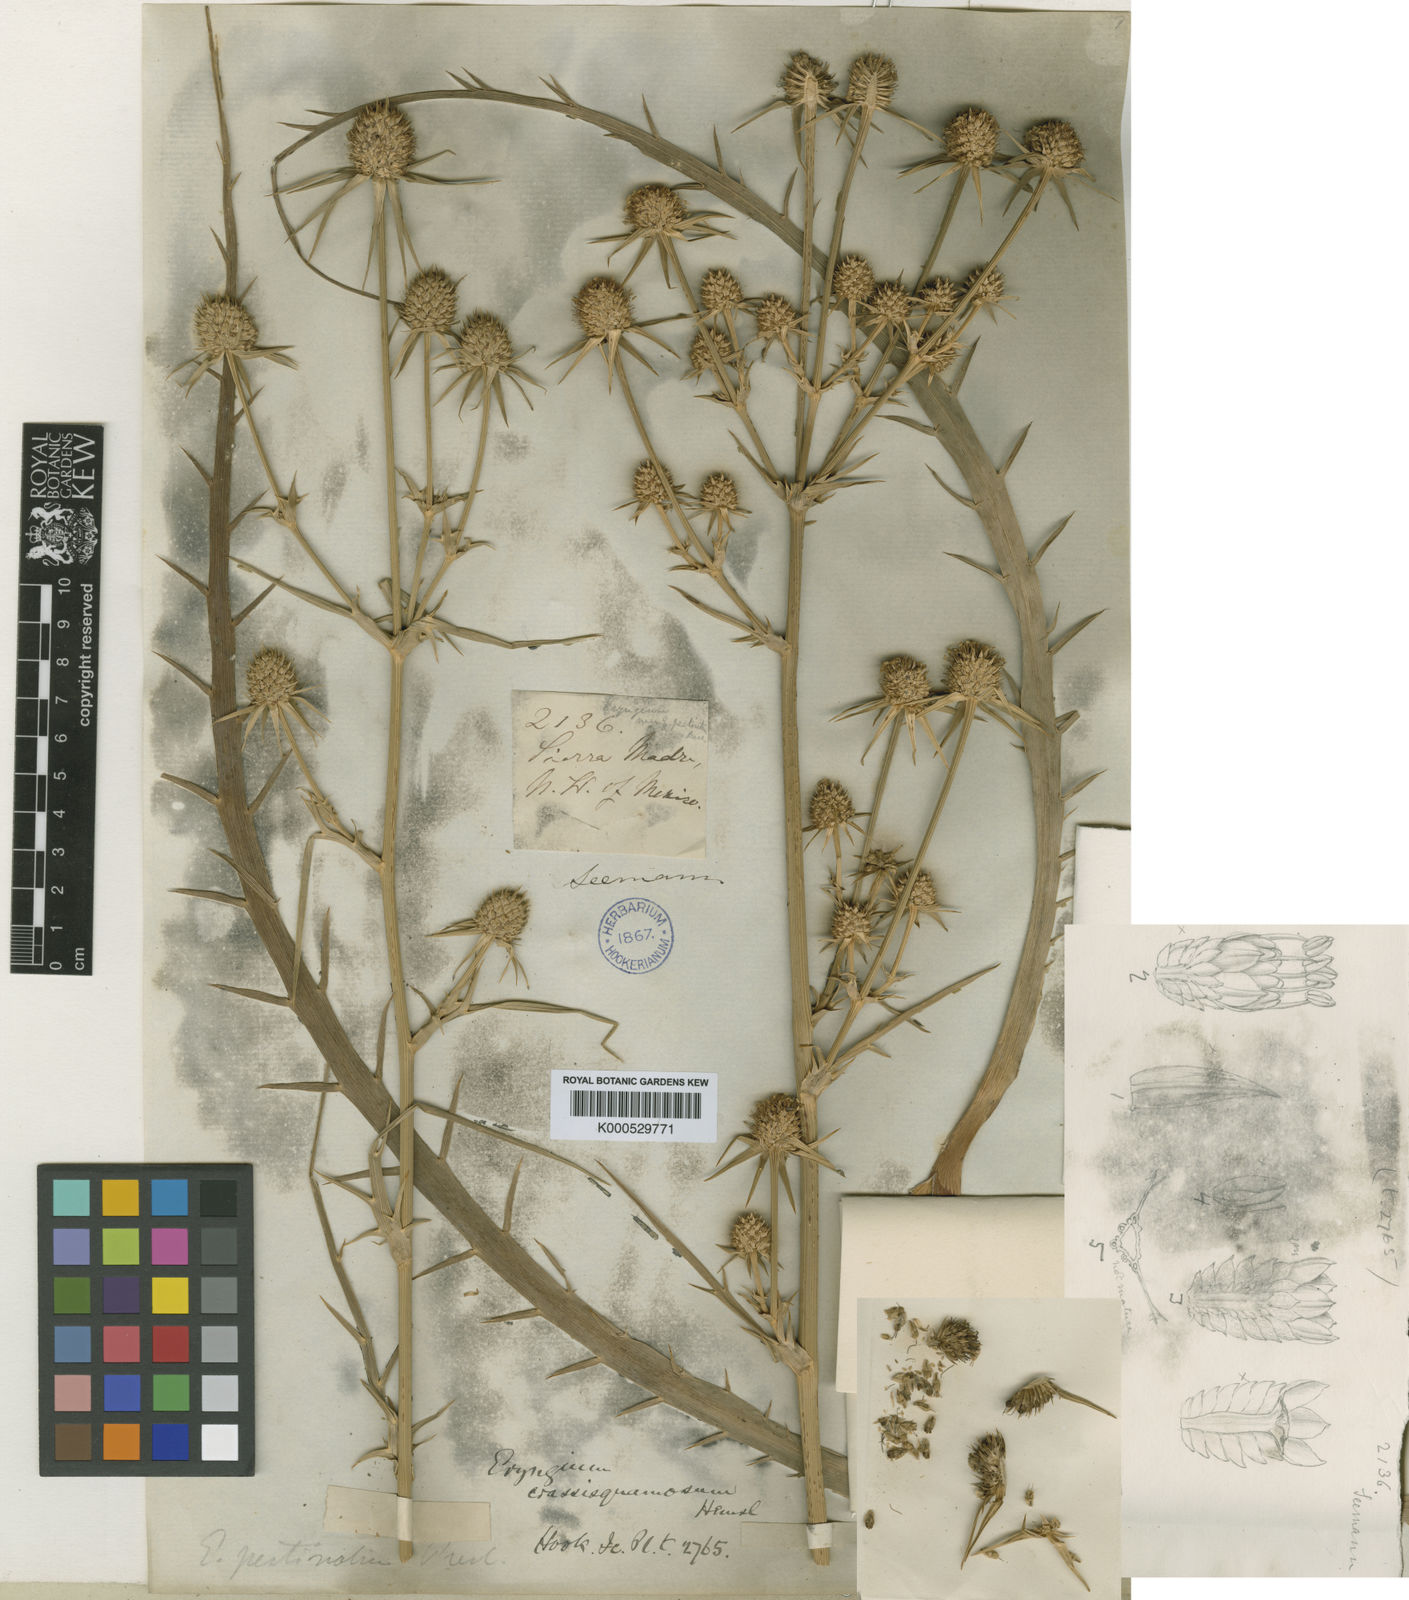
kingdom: Plantae
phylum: Tracheophyta
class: Magnoliopsida
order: Apiales
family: Apiaceae
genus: Eryngium
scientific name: Eryngium crassisquamosum
